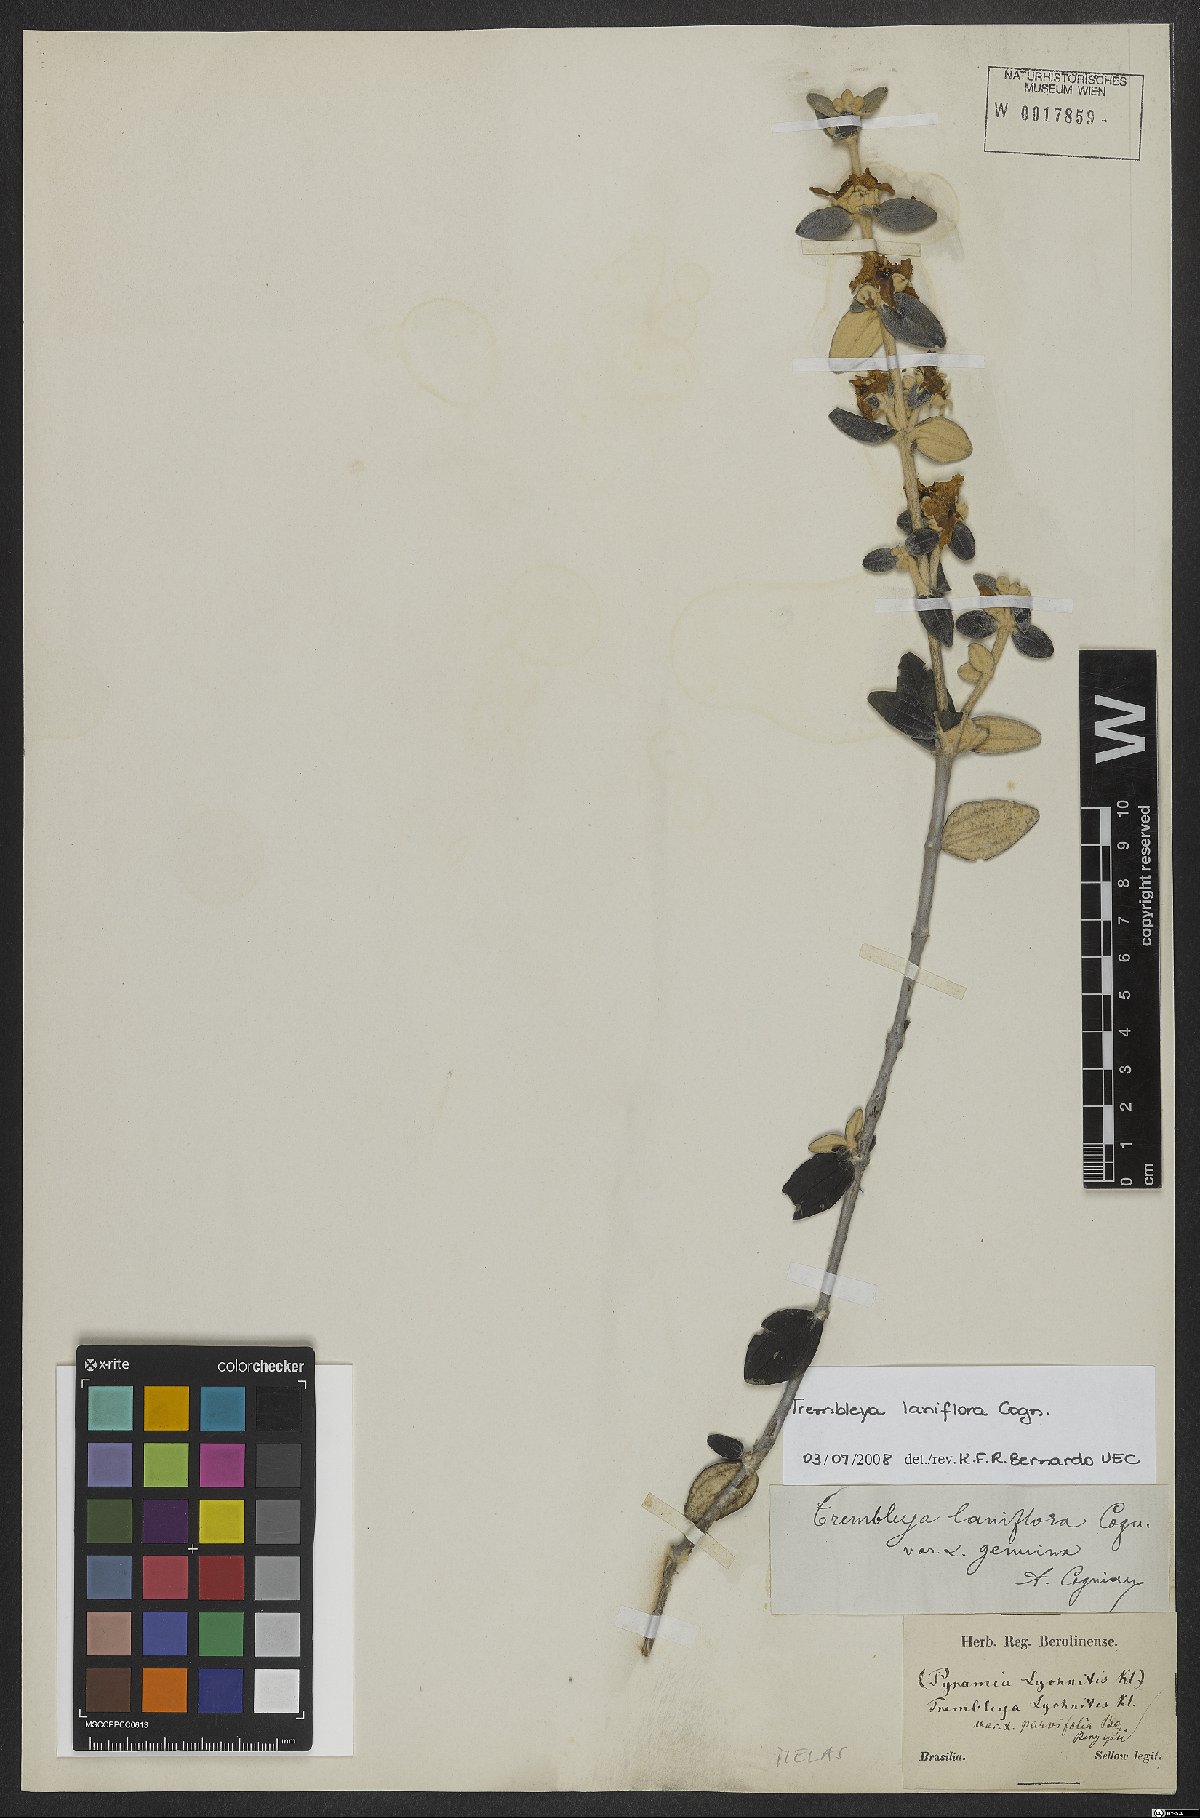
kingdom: Plantae
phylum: Tracheophyta
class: Magnoliopsida
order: Myrtales
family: Melastomataceae
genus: Microlicia
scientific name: Microlicia laniflora
